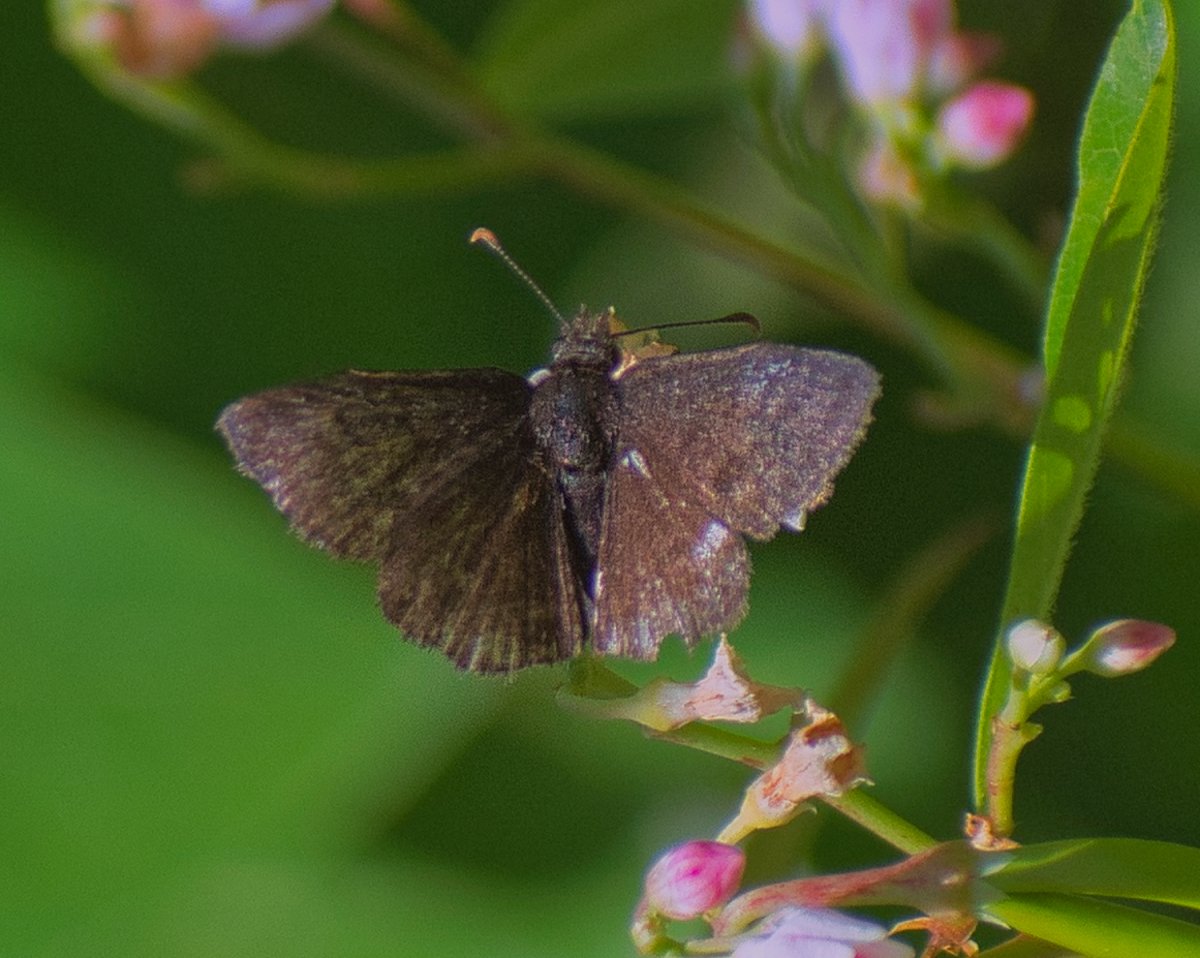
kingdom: Animalia
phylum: Arthropoda
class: Insecta
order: Lepidoptera
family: Hesperiidae
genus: Erynnis
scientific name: Erynnis icelus
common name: Dreamy Duskywing
